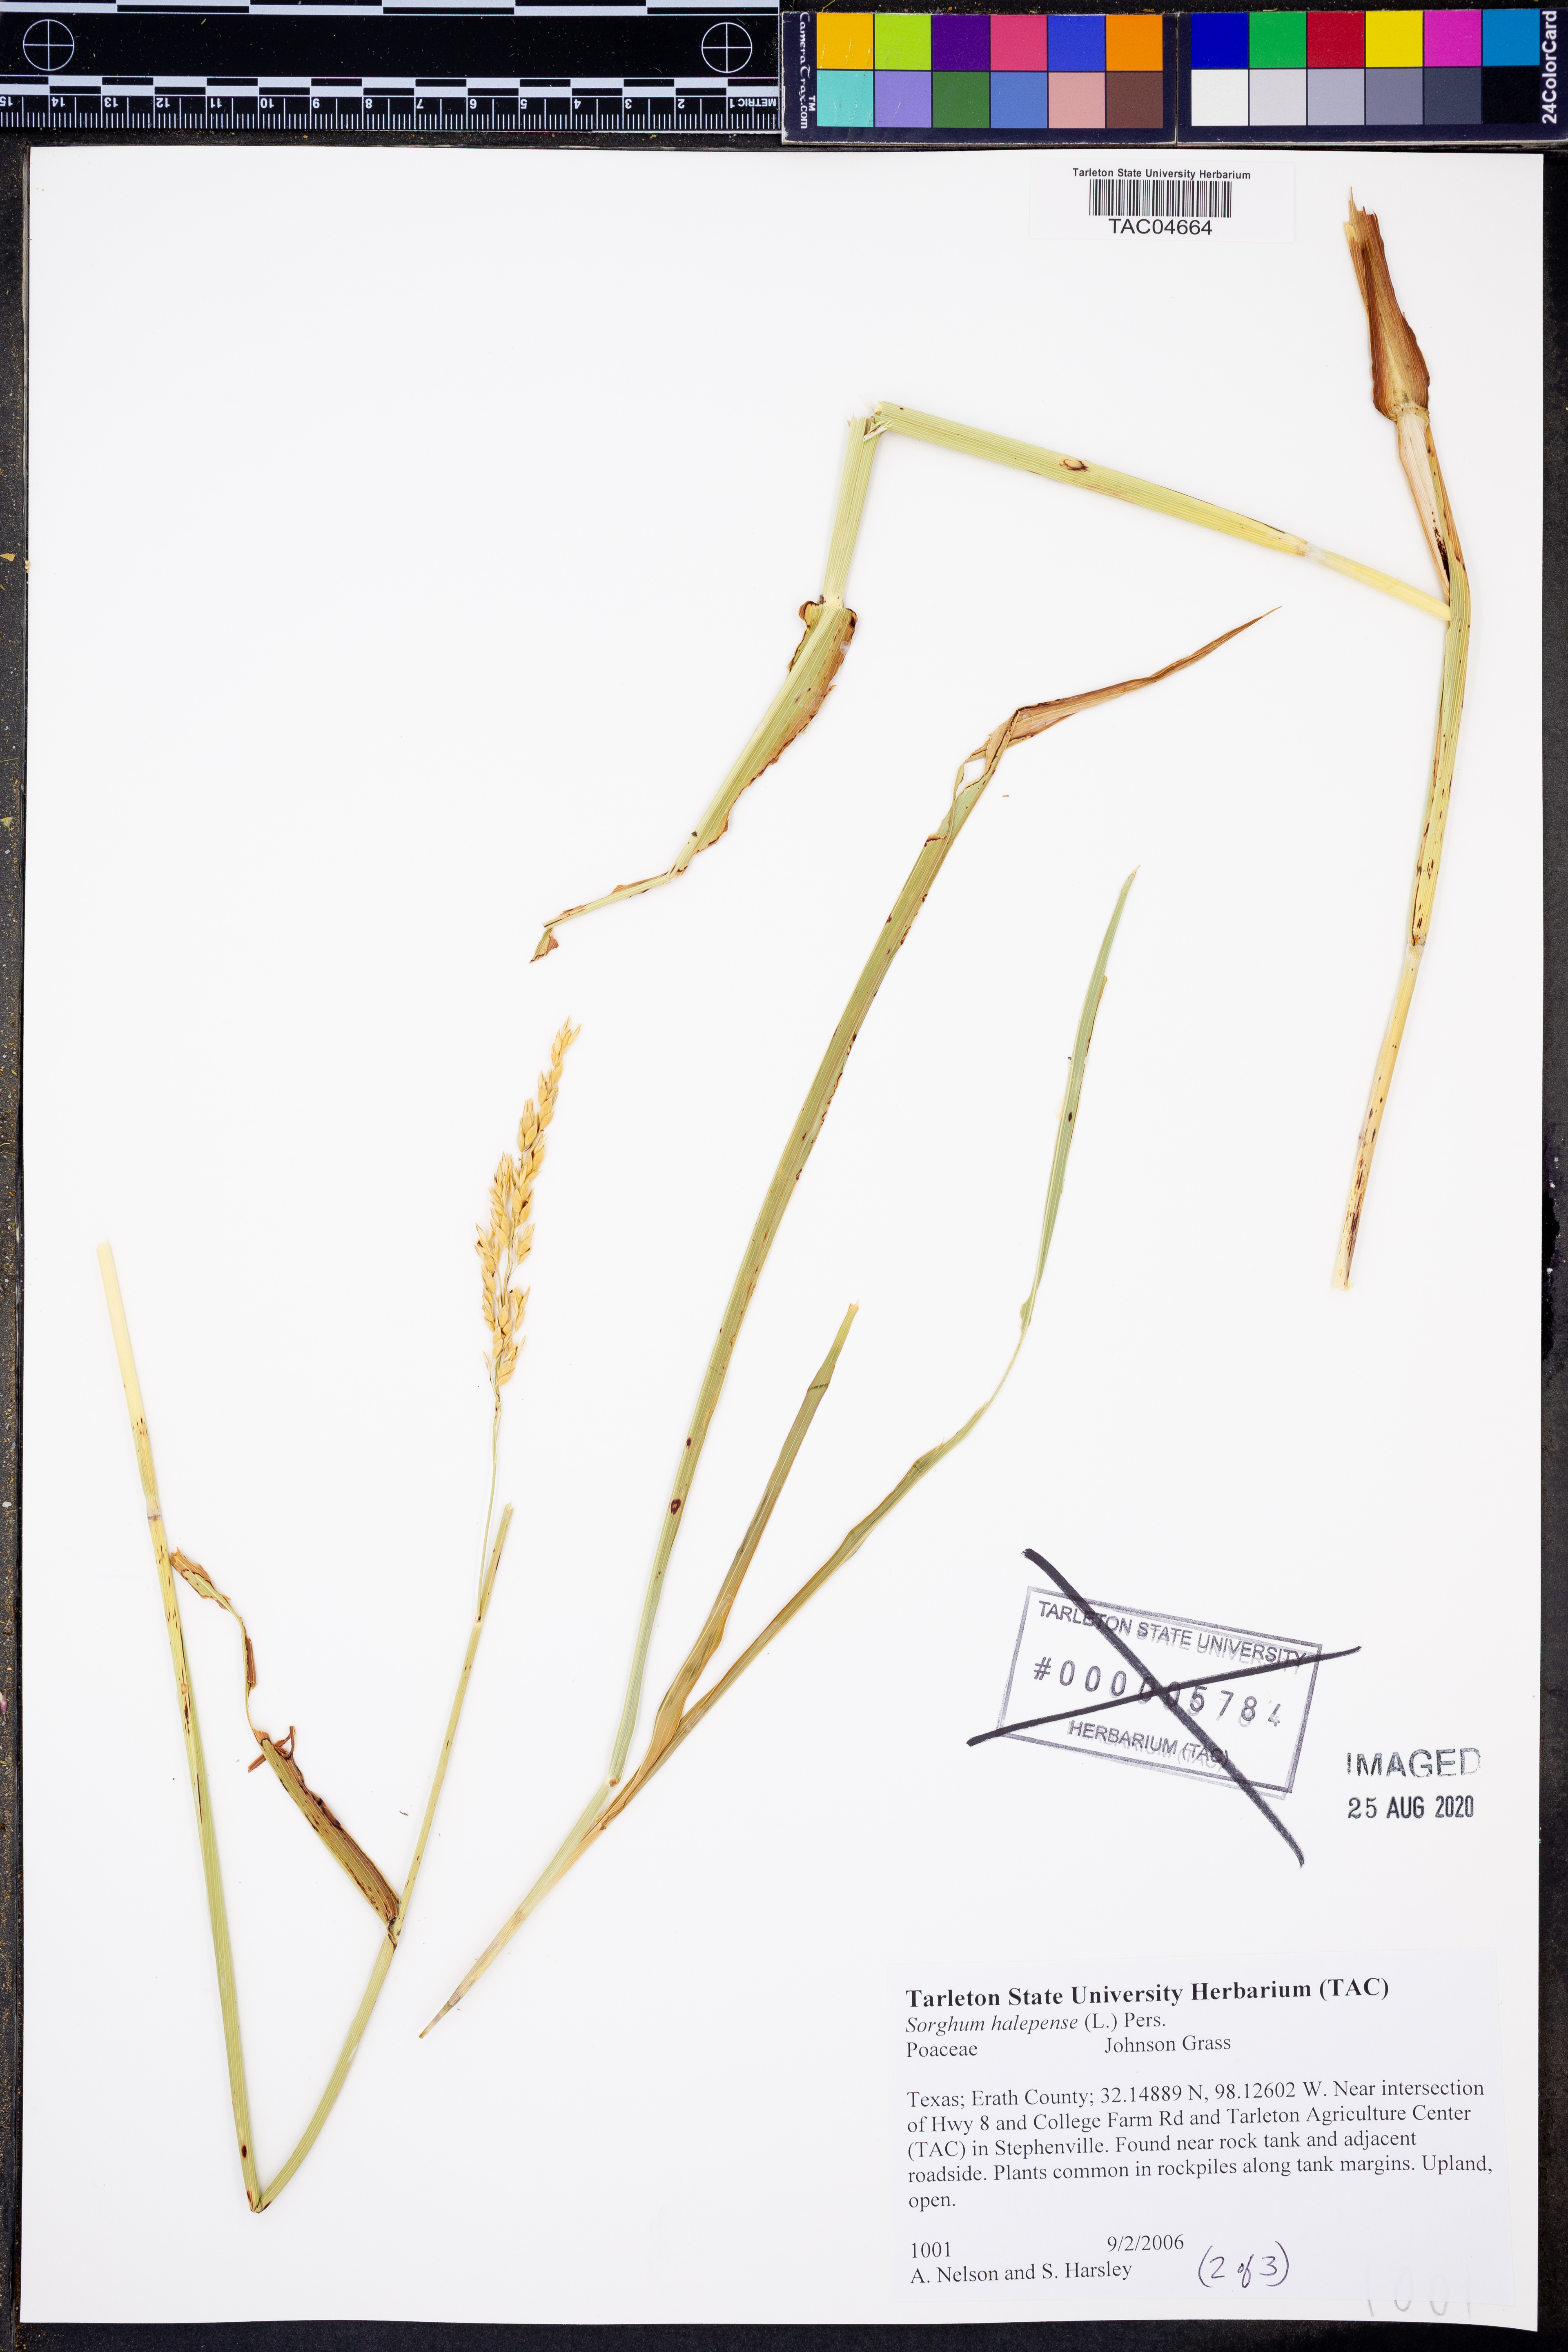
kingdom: Plantae
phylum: Tracheophyta
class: Liliopsida
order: Poales
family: Poaceae
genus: Sorghum
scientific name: Sorghum halepense
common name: Johnson-grass
